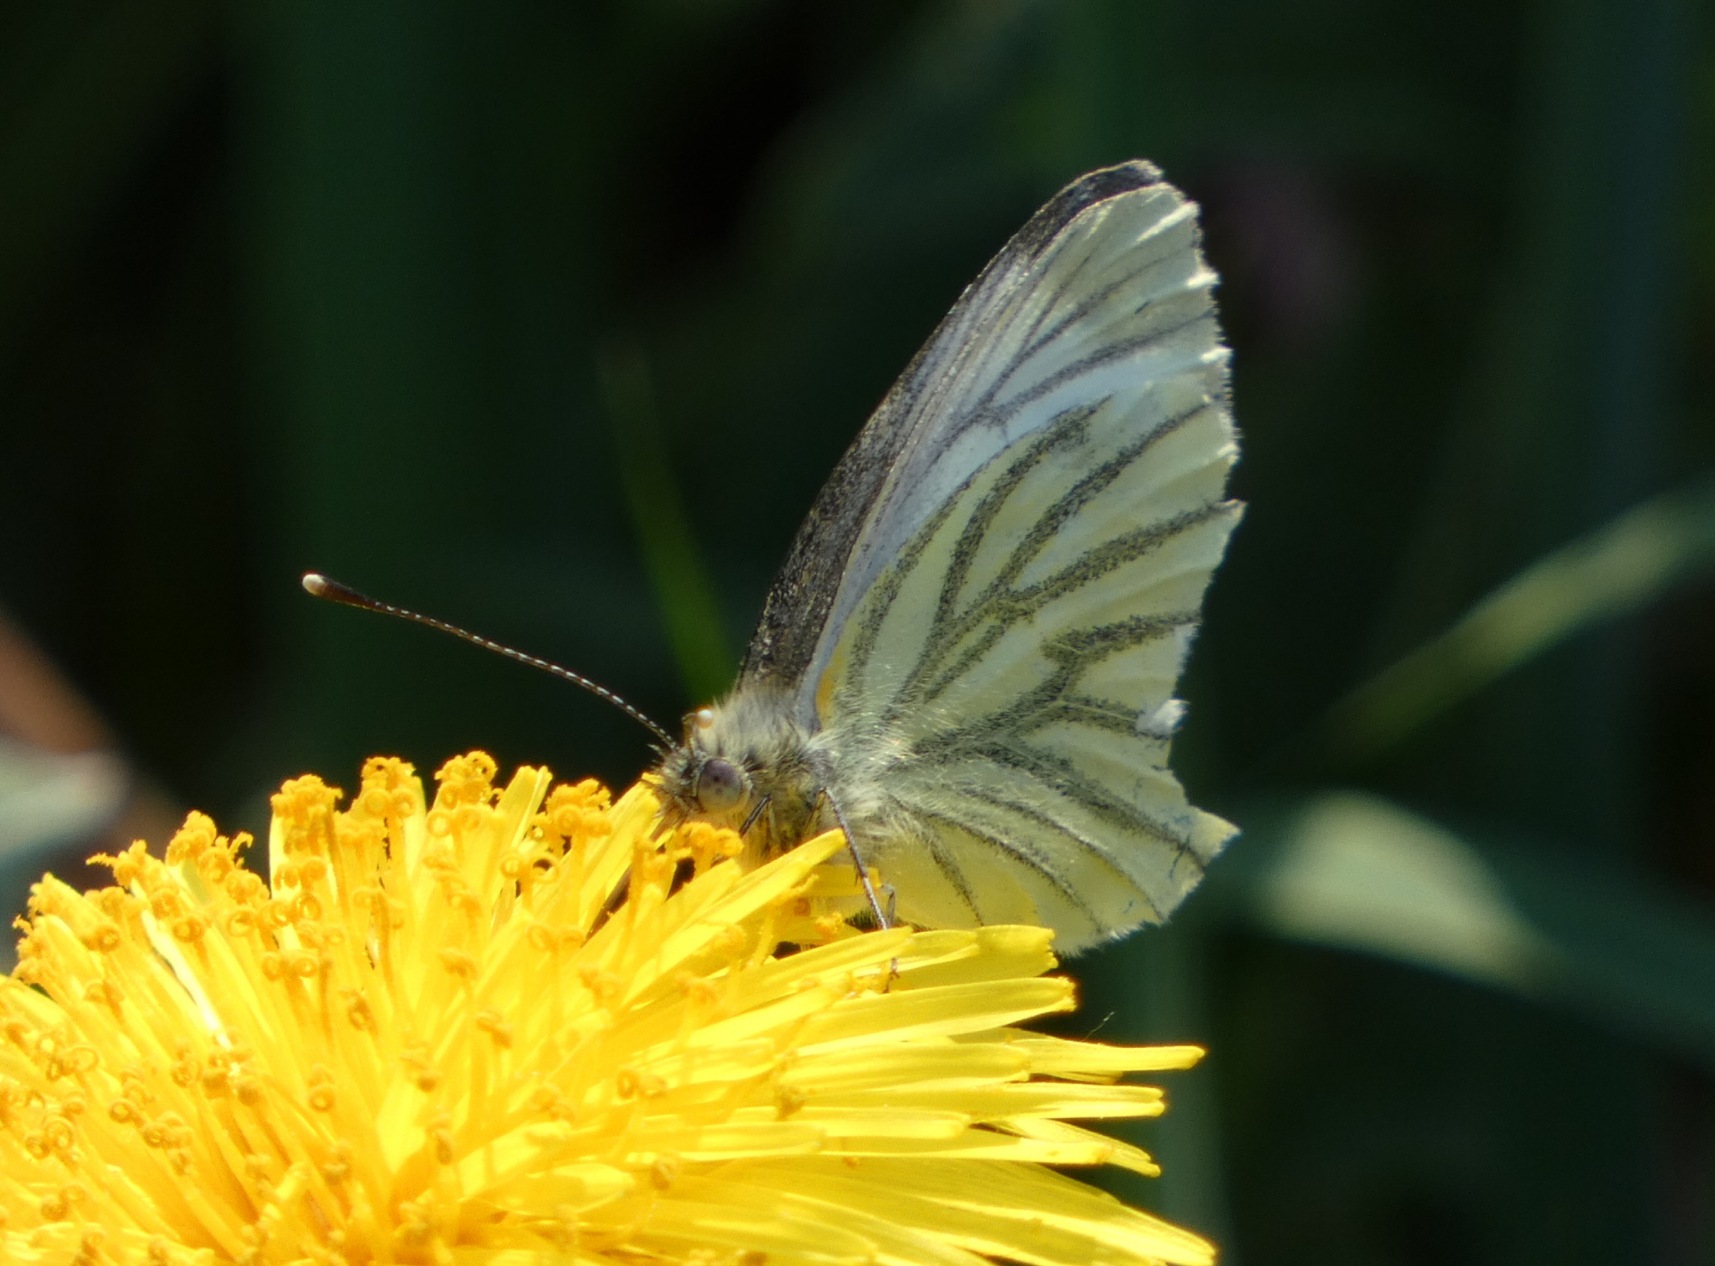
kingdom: Animalia
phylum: Arthropoda
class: Insecta
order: Lepidoptera
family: Pieridae
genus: Pieris
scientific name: Pieris napi
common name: Grønåret kålsommerfugl
